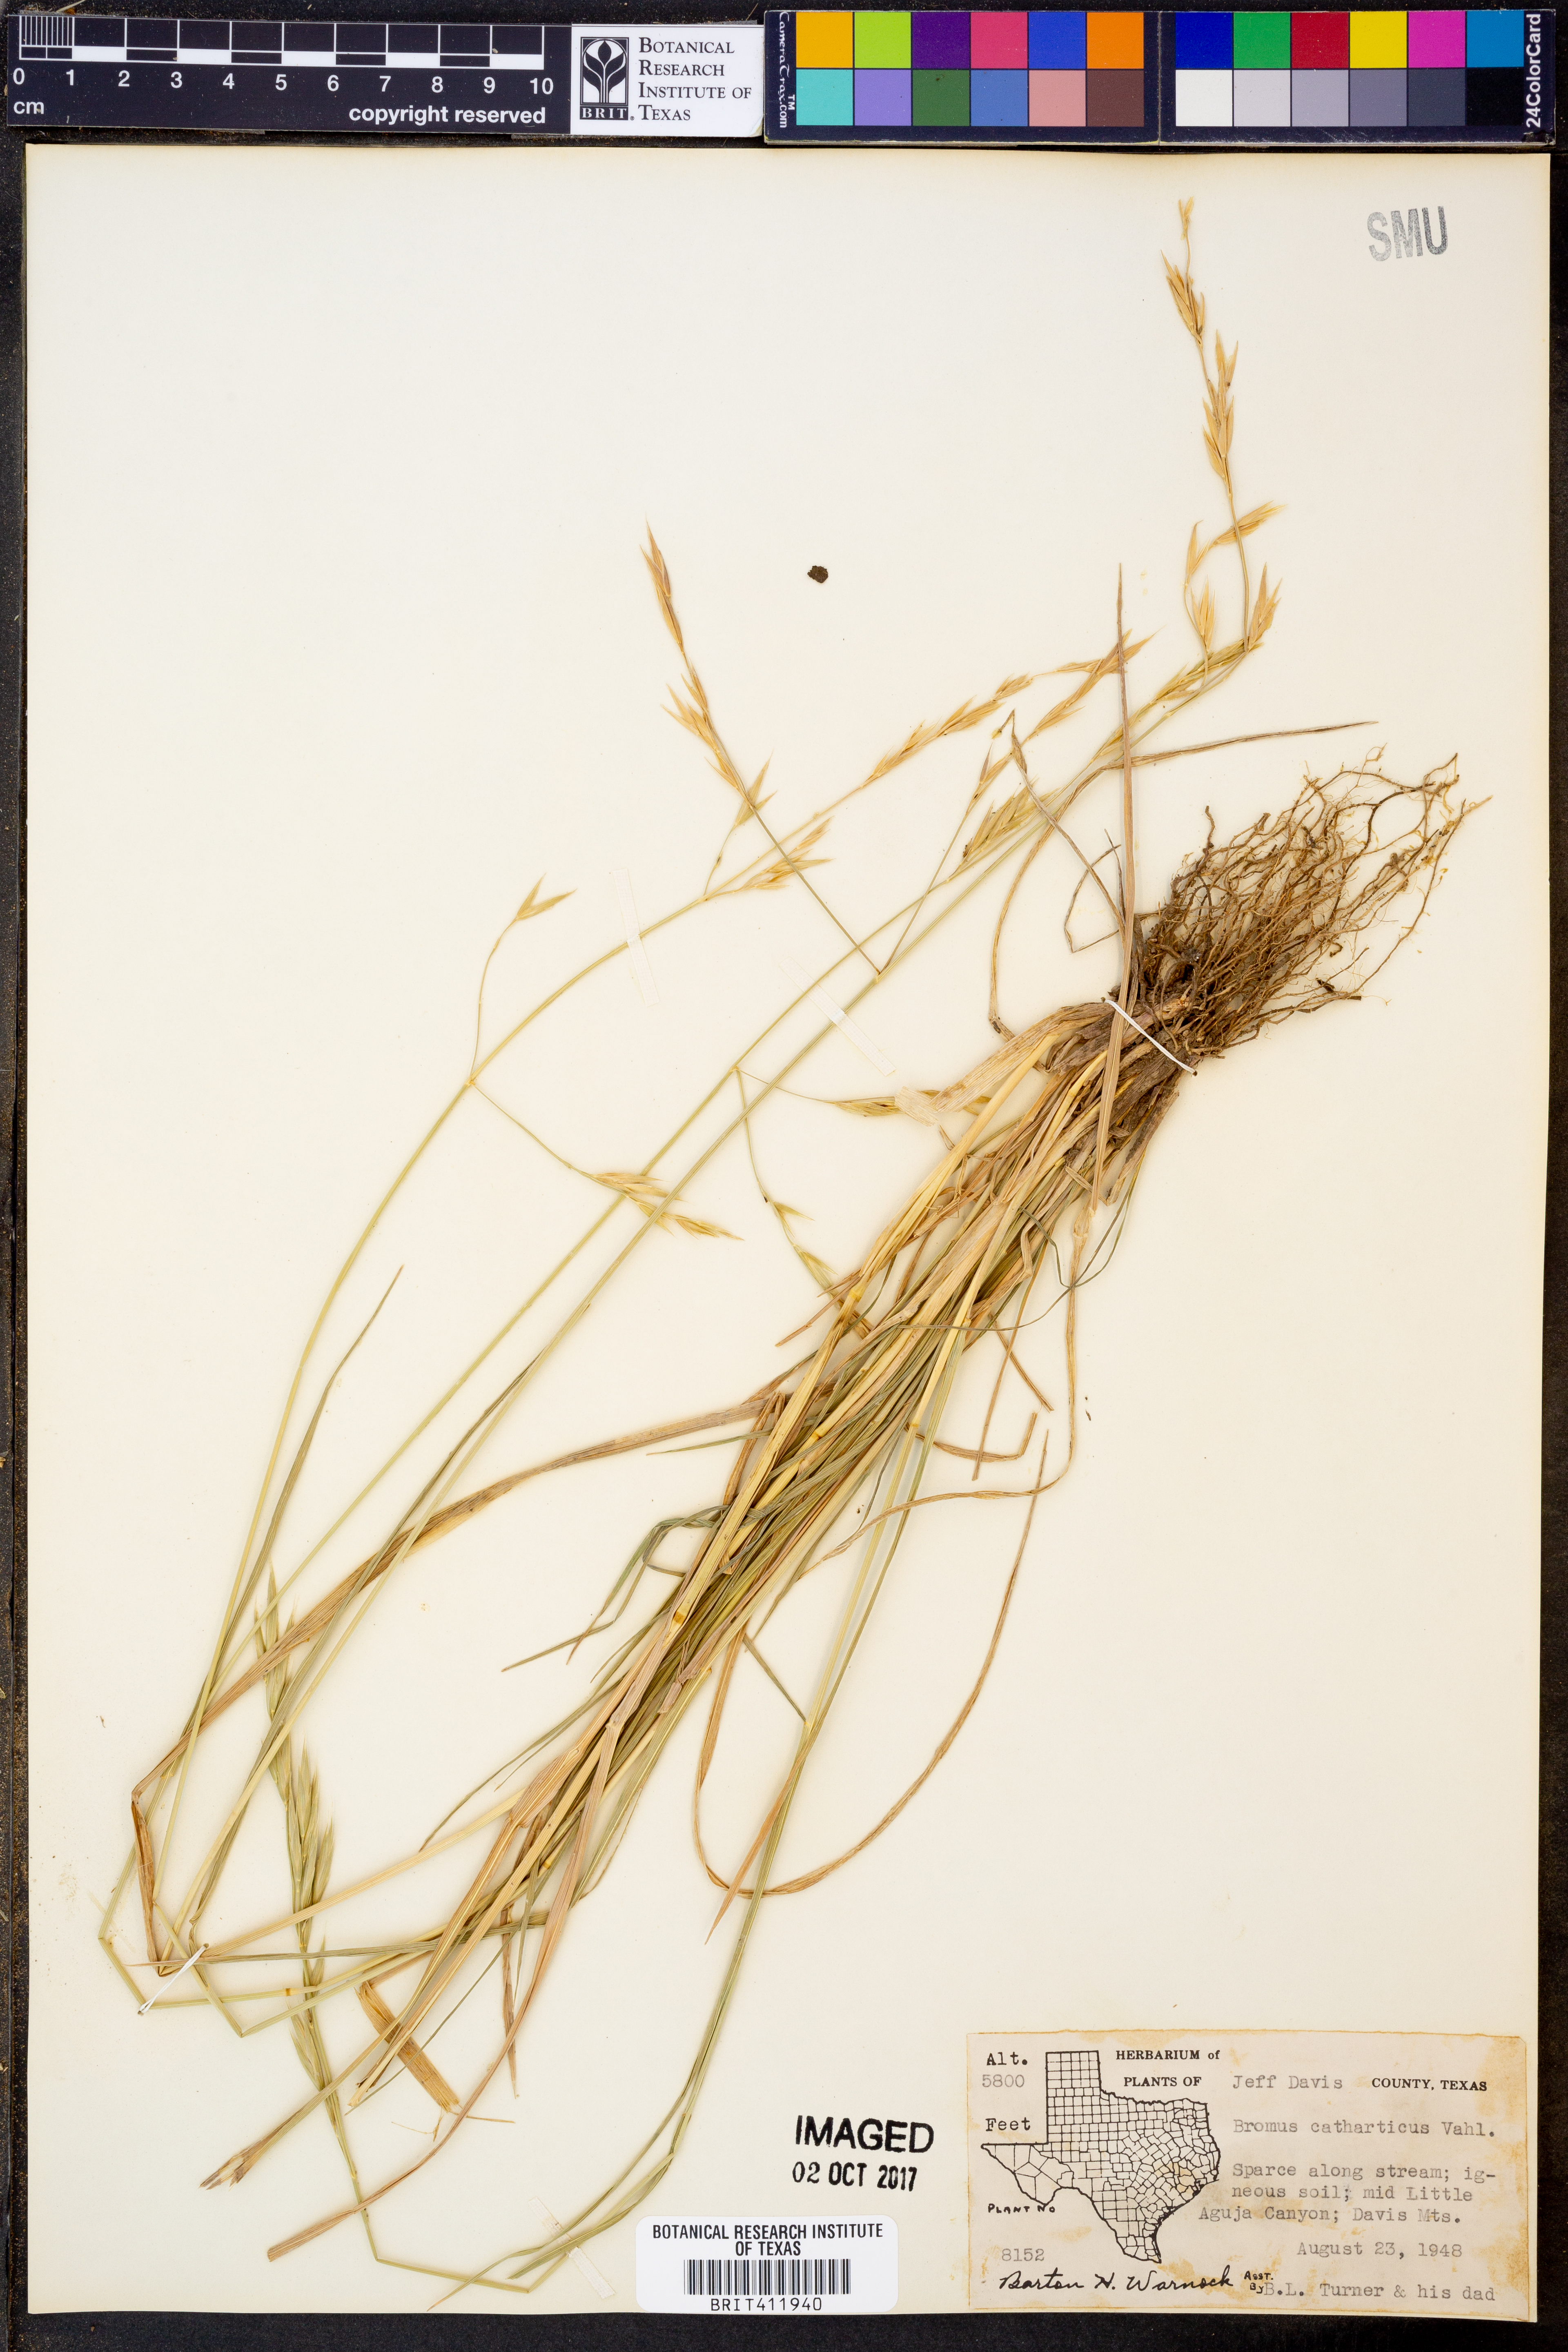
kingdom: Plantae
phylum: Tracheophyta
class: Liliopsida
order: Poales
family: Poaceae
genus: Bromus
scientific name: Bromus catharticus
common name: Rescuegrass
